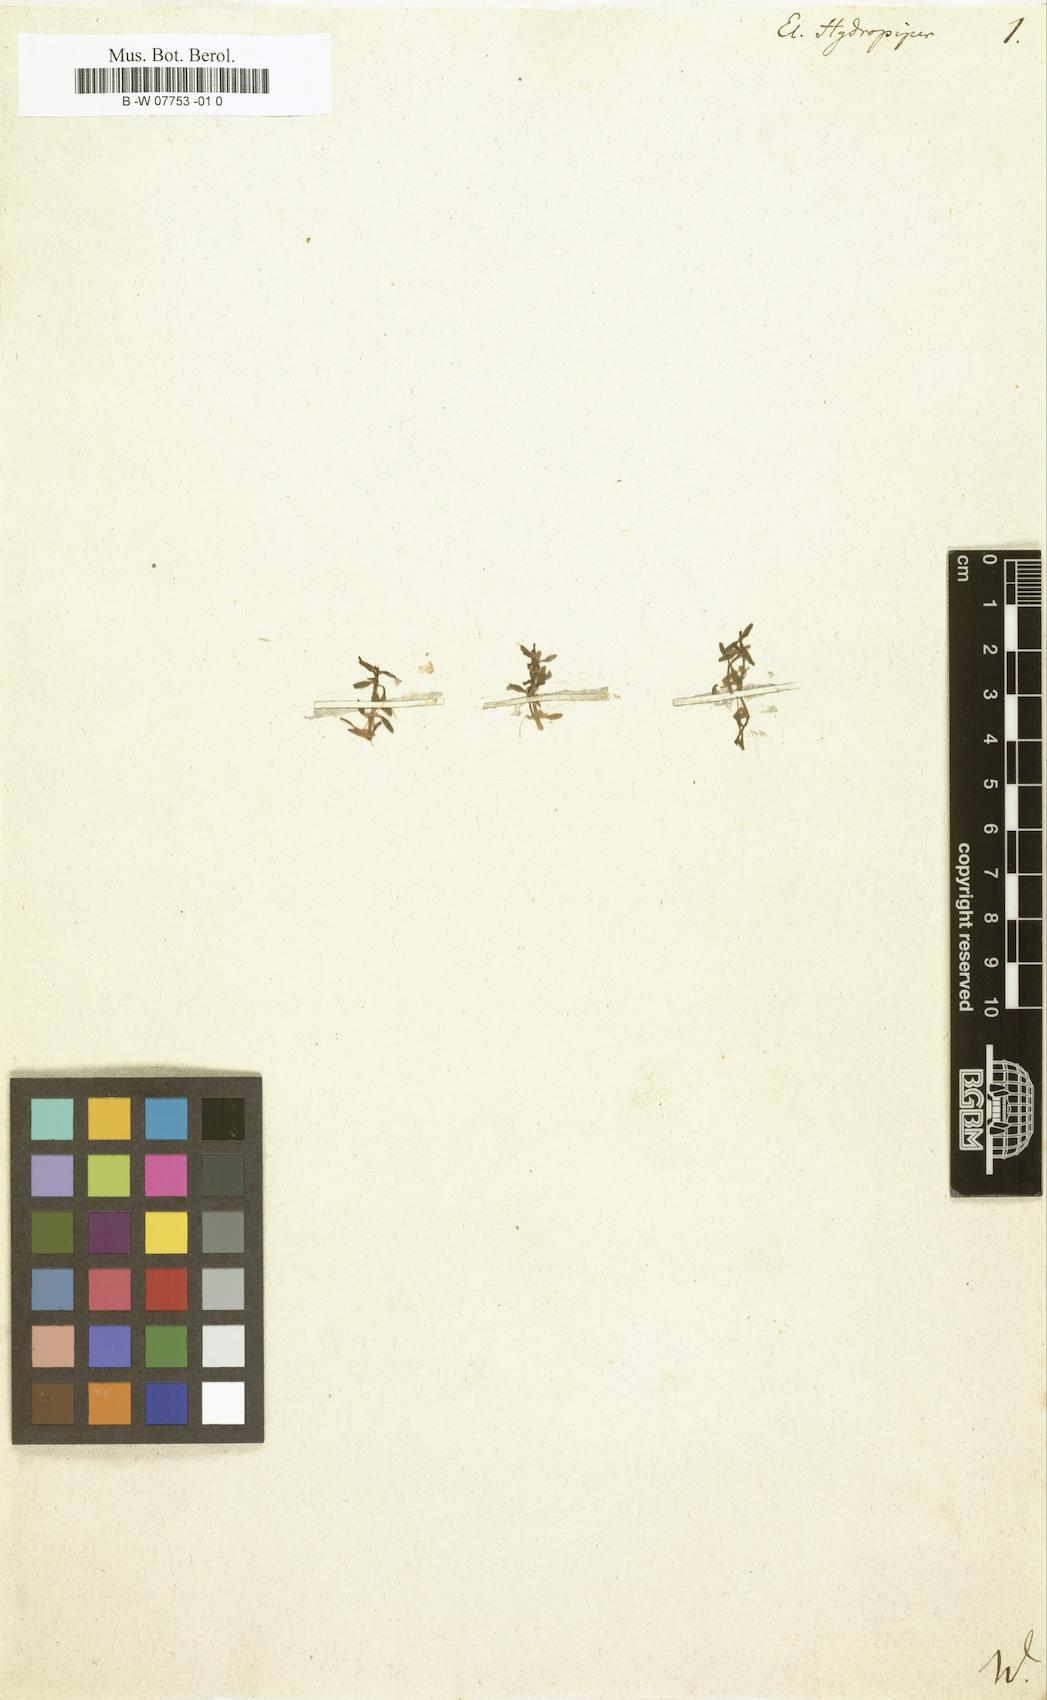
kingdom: Plantae
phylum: Tracheophyta
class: Magnoliopsida
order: Malpighiales
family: Elatinaceae
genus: Elatine
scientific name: Elatine hydropiper
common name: Eight-stamened waterwort
